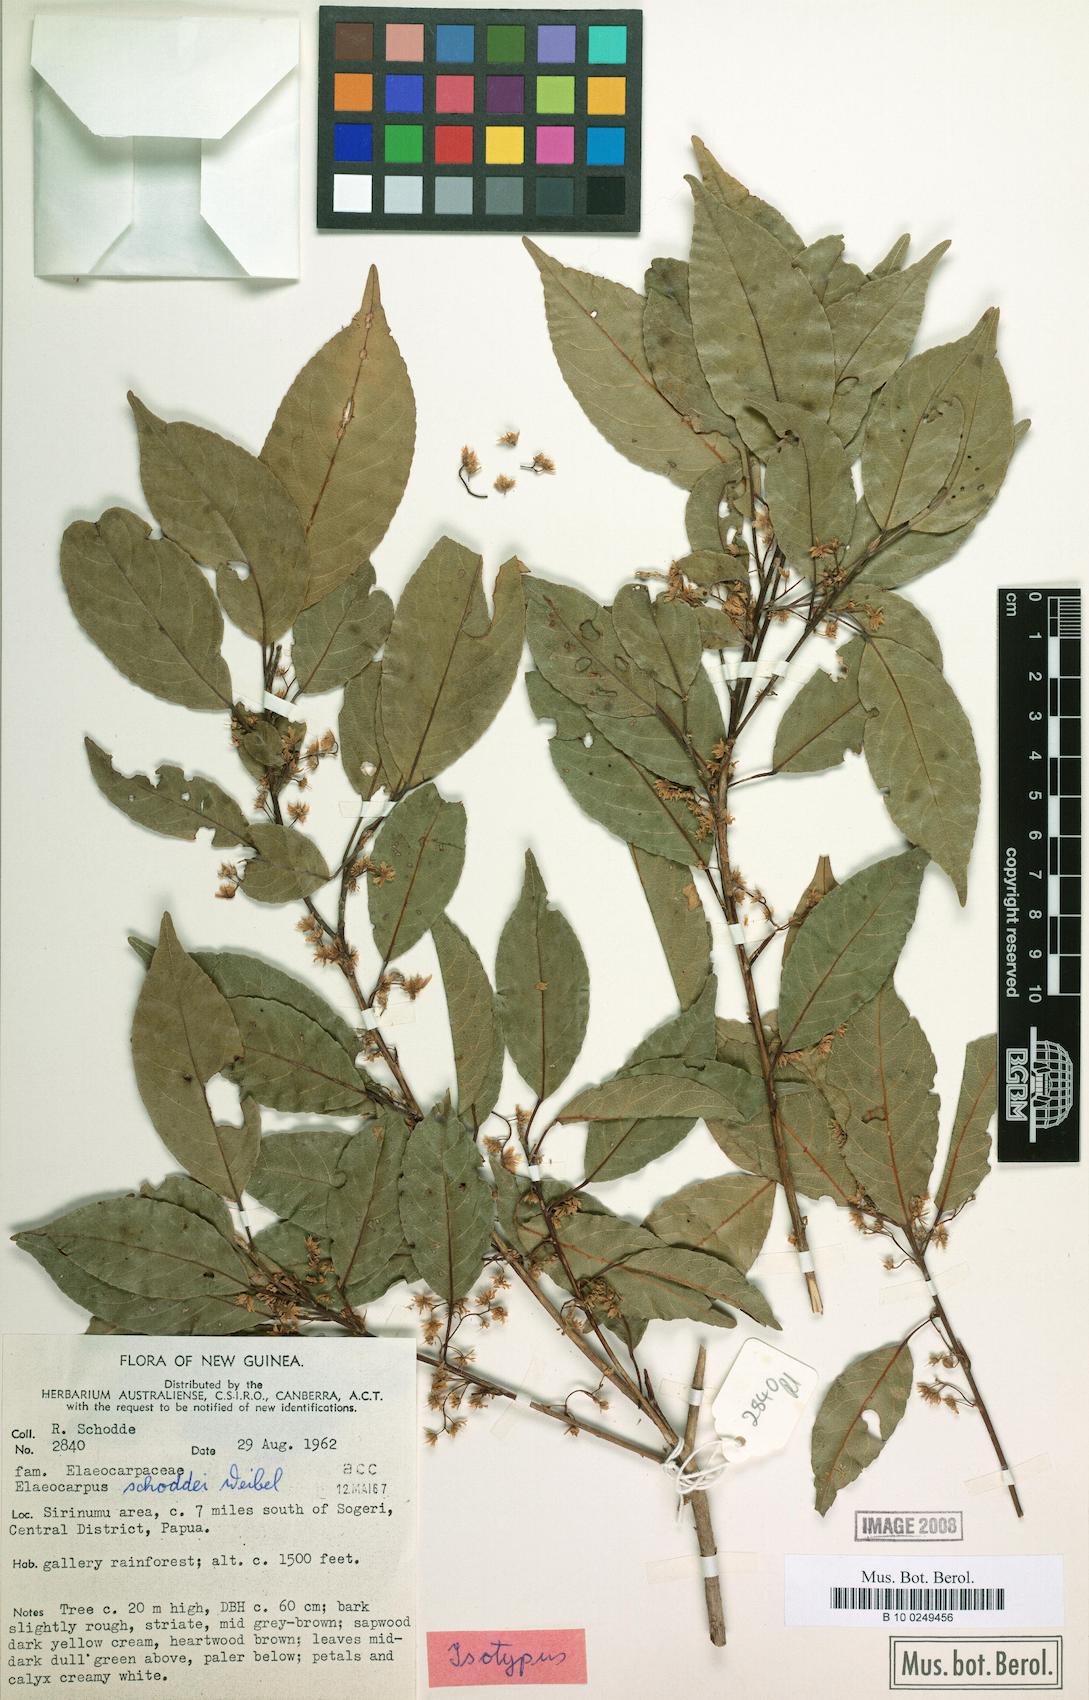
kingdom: Plantae
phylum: Tracheophyta
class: Magnoliopsida
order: Oxalidales
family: Elaeocarpaceae
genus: Elaeocarpus
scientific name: Elaeocarpus schoddei
